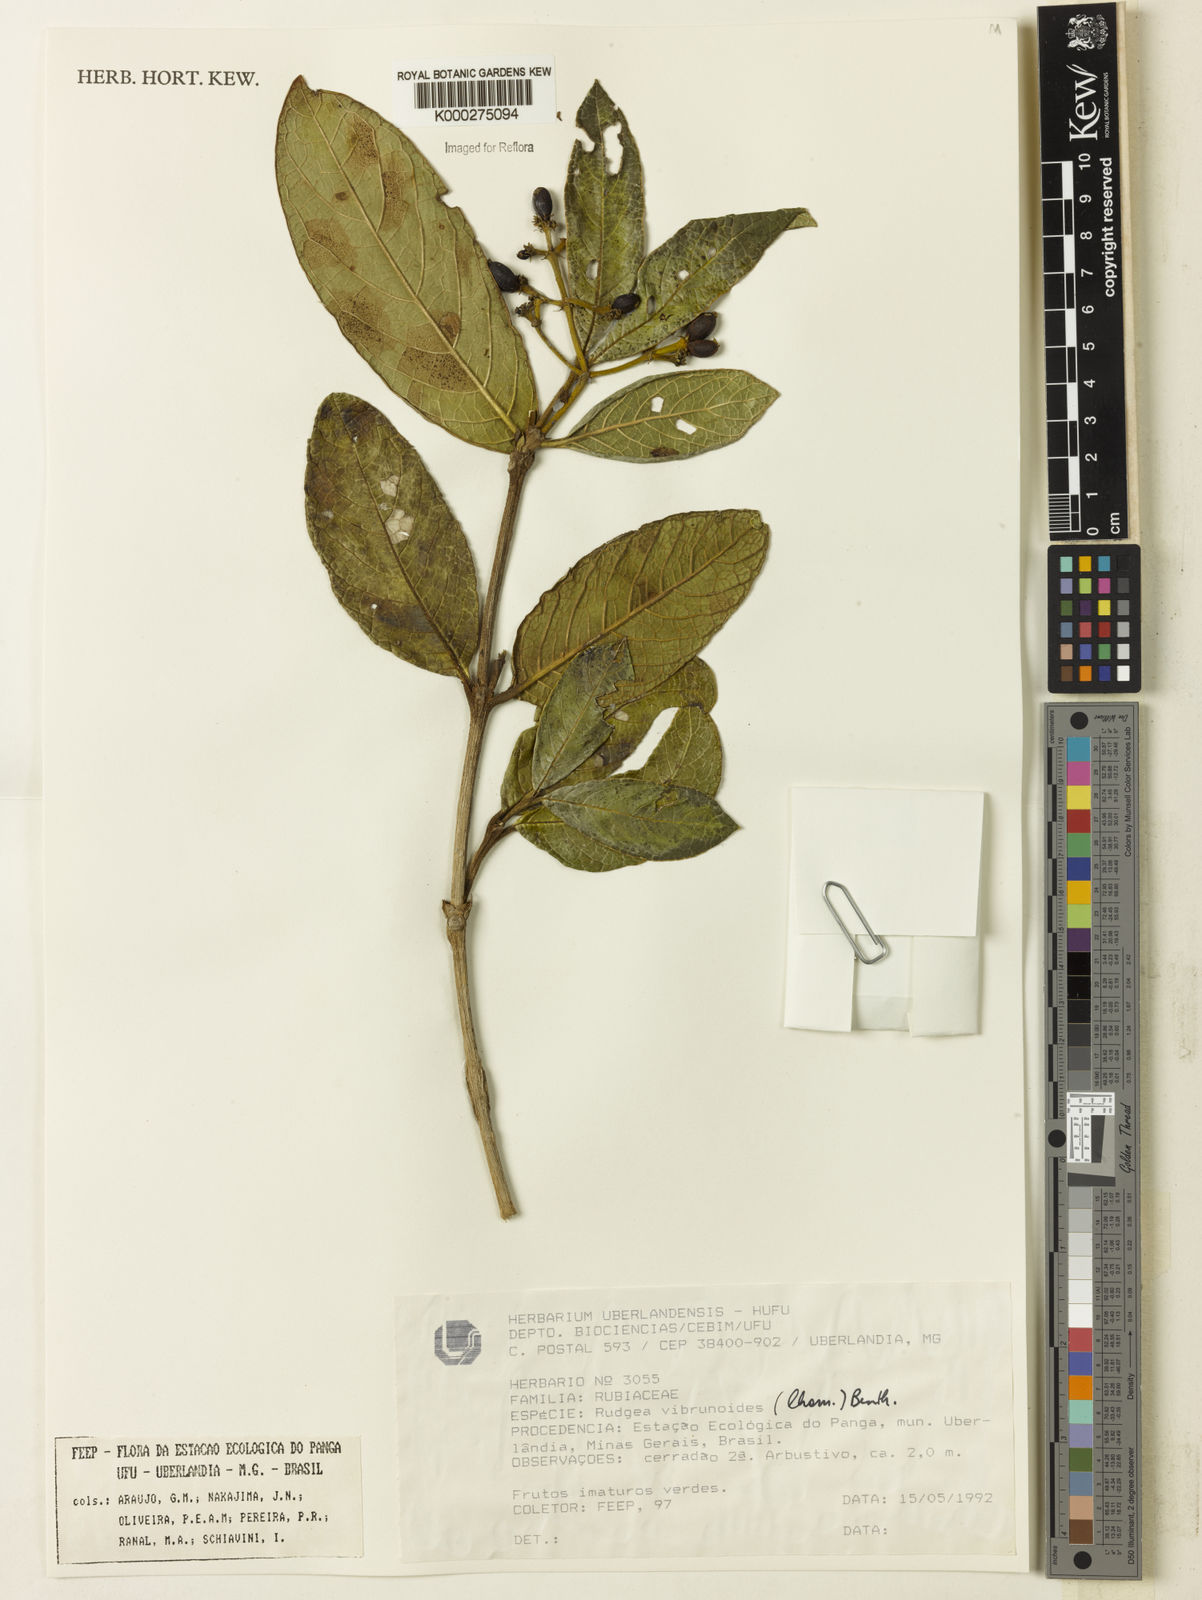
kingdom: Plantae
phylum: Tracheophyta
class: Magnoliopsida
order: Gentianales
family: Rubiaceae
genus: Rudgea
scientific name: Rudgea viburnoides
